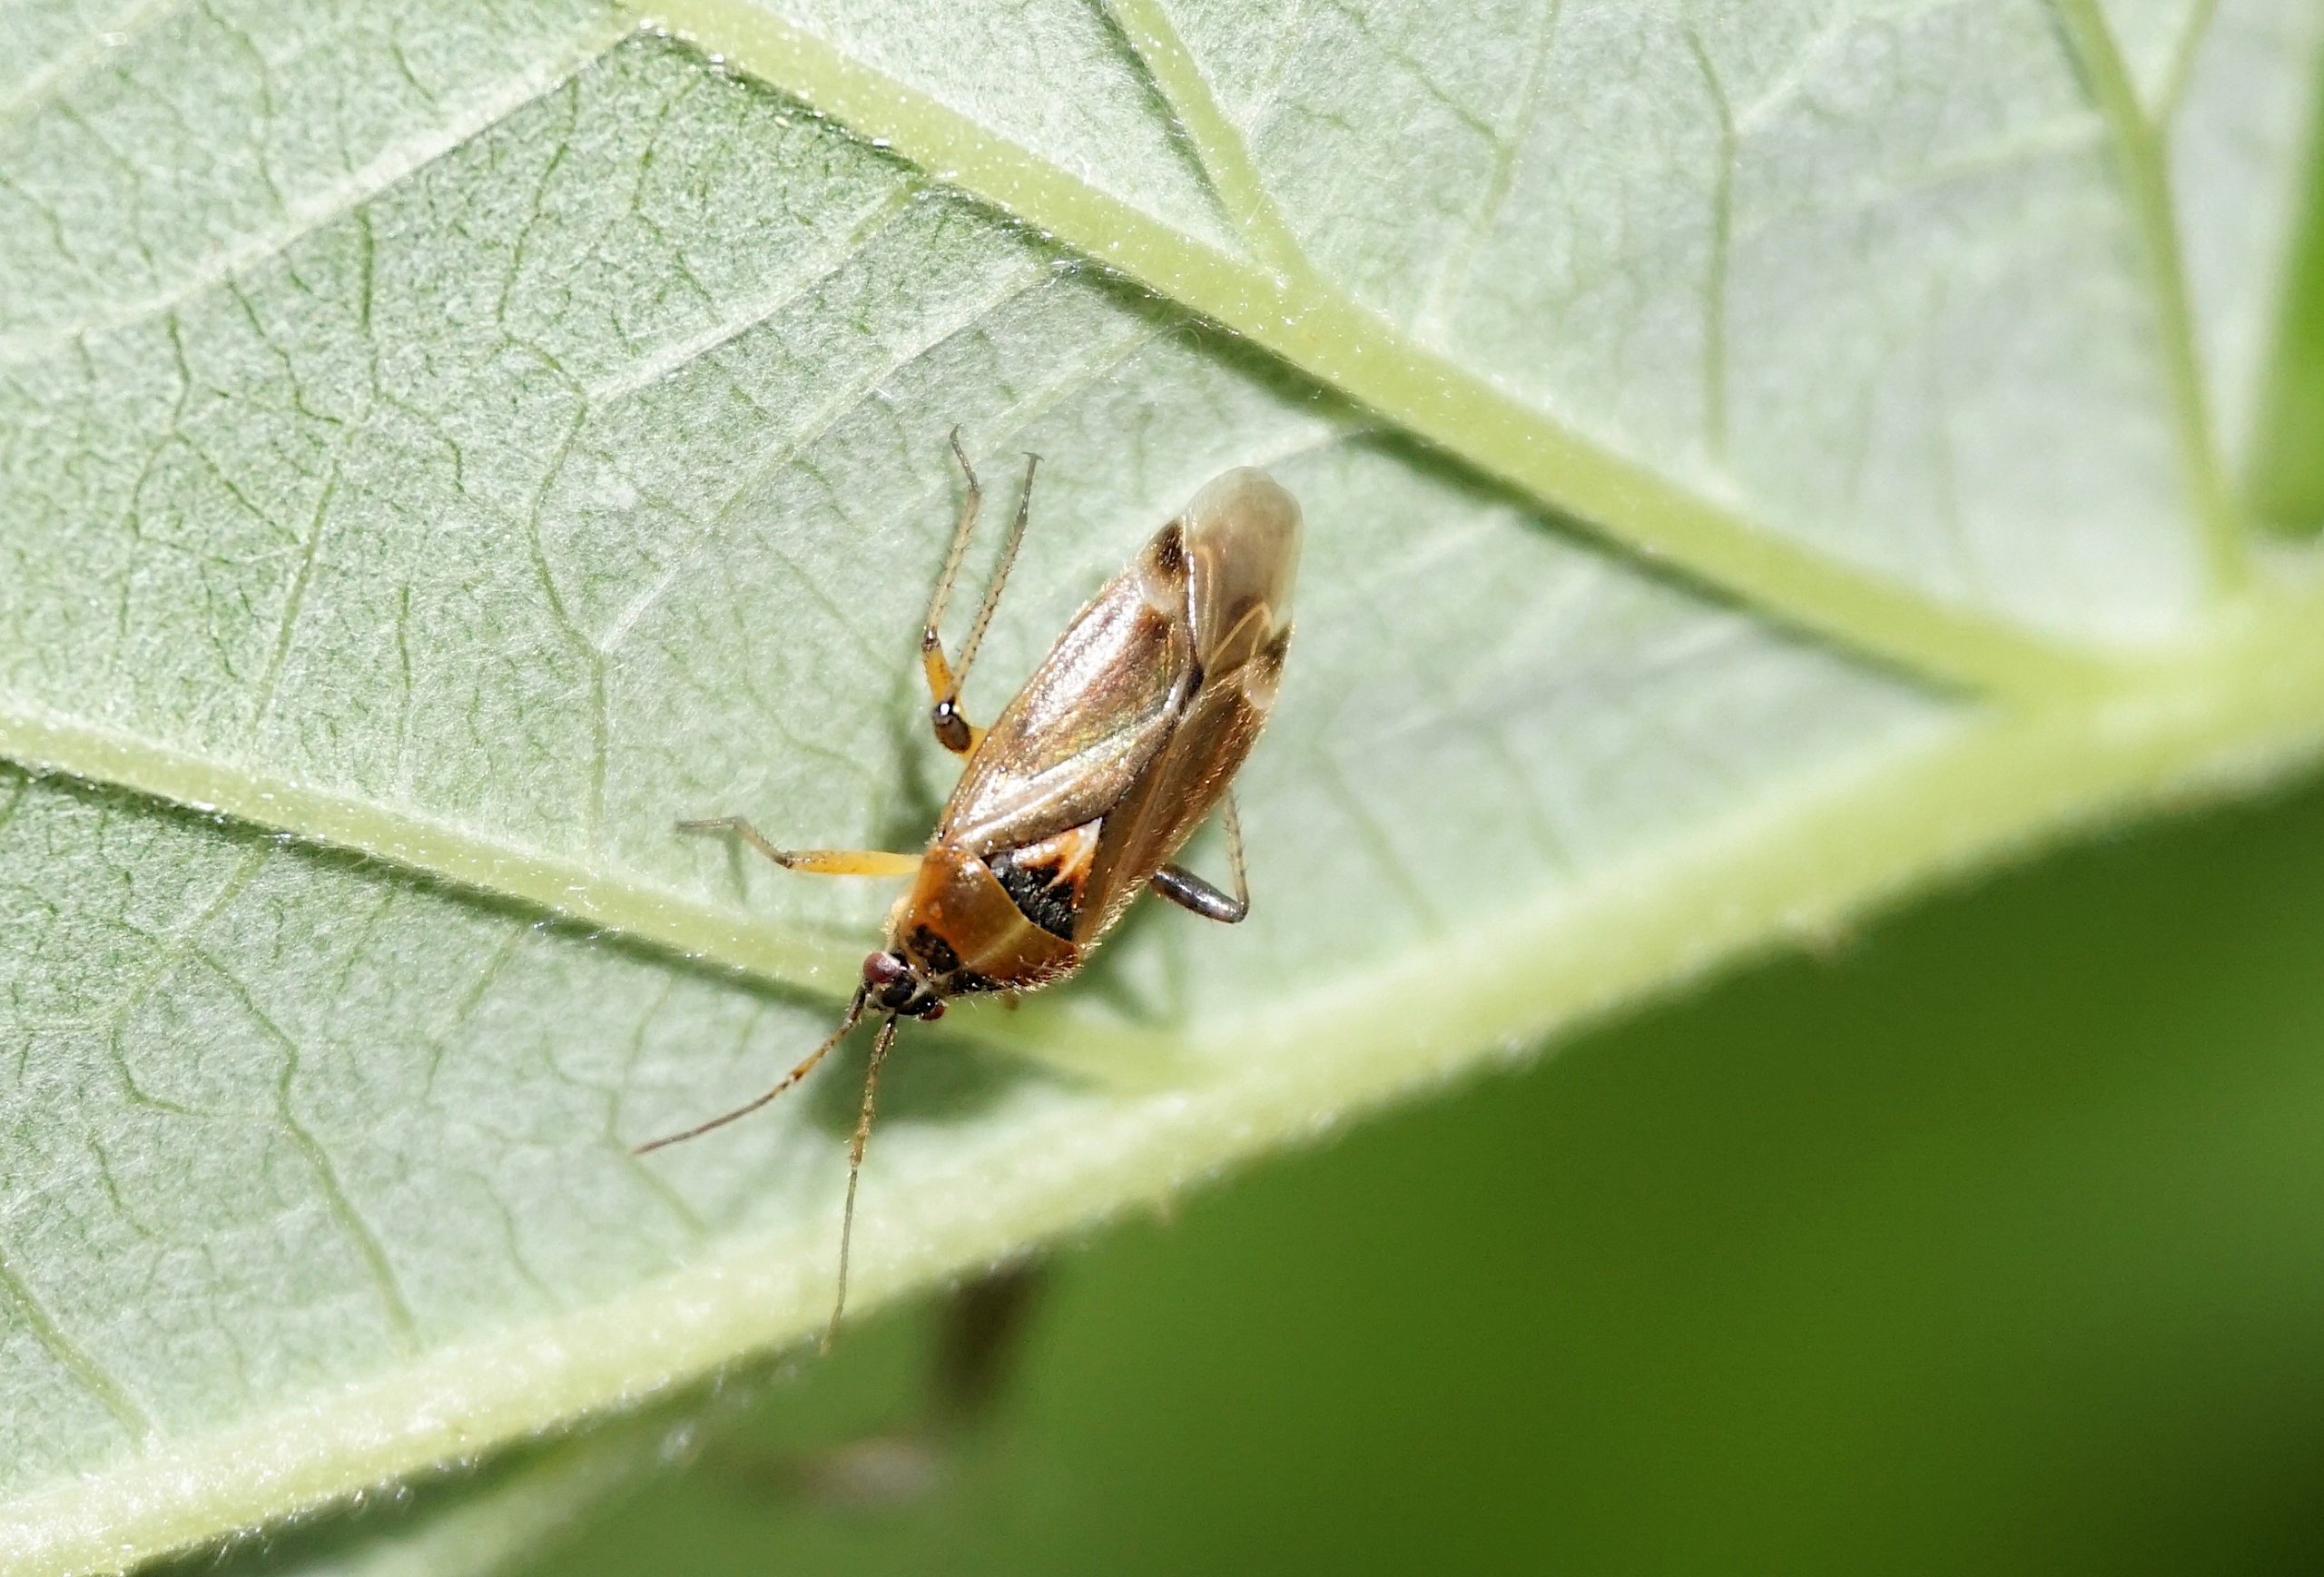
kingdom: Animalia
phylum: Arthropoda
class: Insecta
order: Hemiptera
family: Miridae
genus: Harpocera
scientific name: Harpocera thoracica
